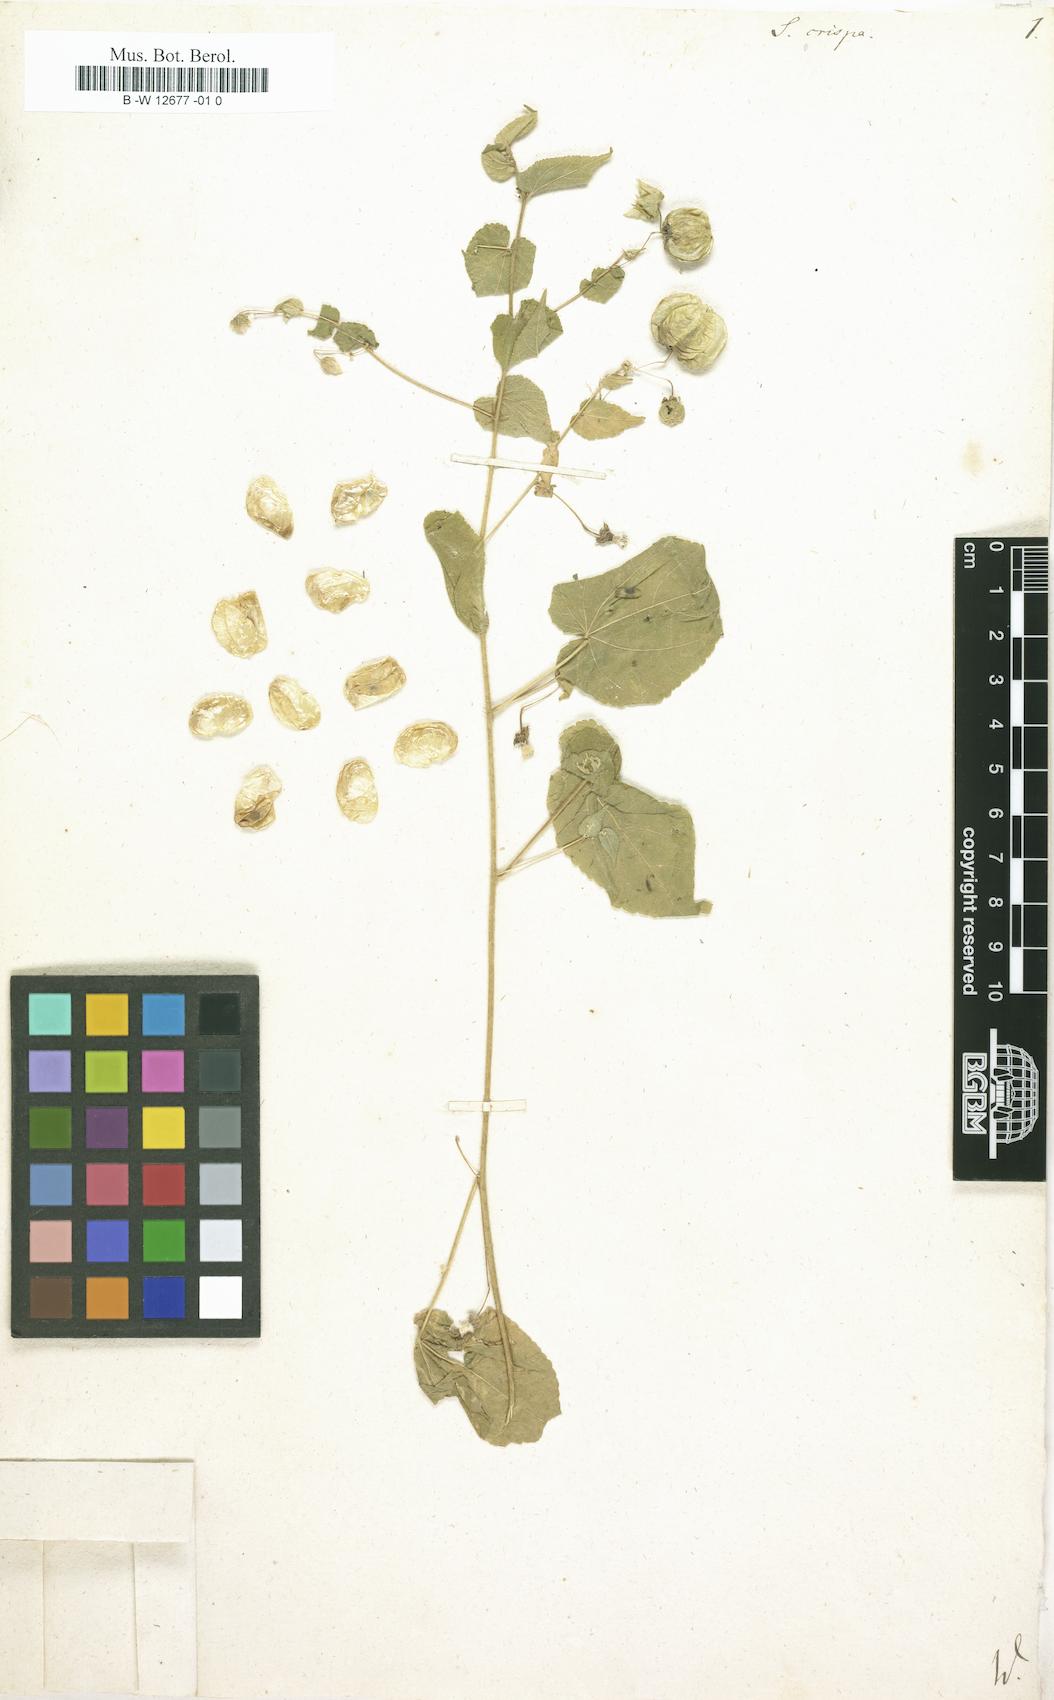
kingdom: Plantae
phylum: Tracheophyta
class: Magnoliopsida
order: Malvales
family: Malvaceae
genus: Herissantia
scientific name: Herissantia crispa
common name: Bladdermallow
